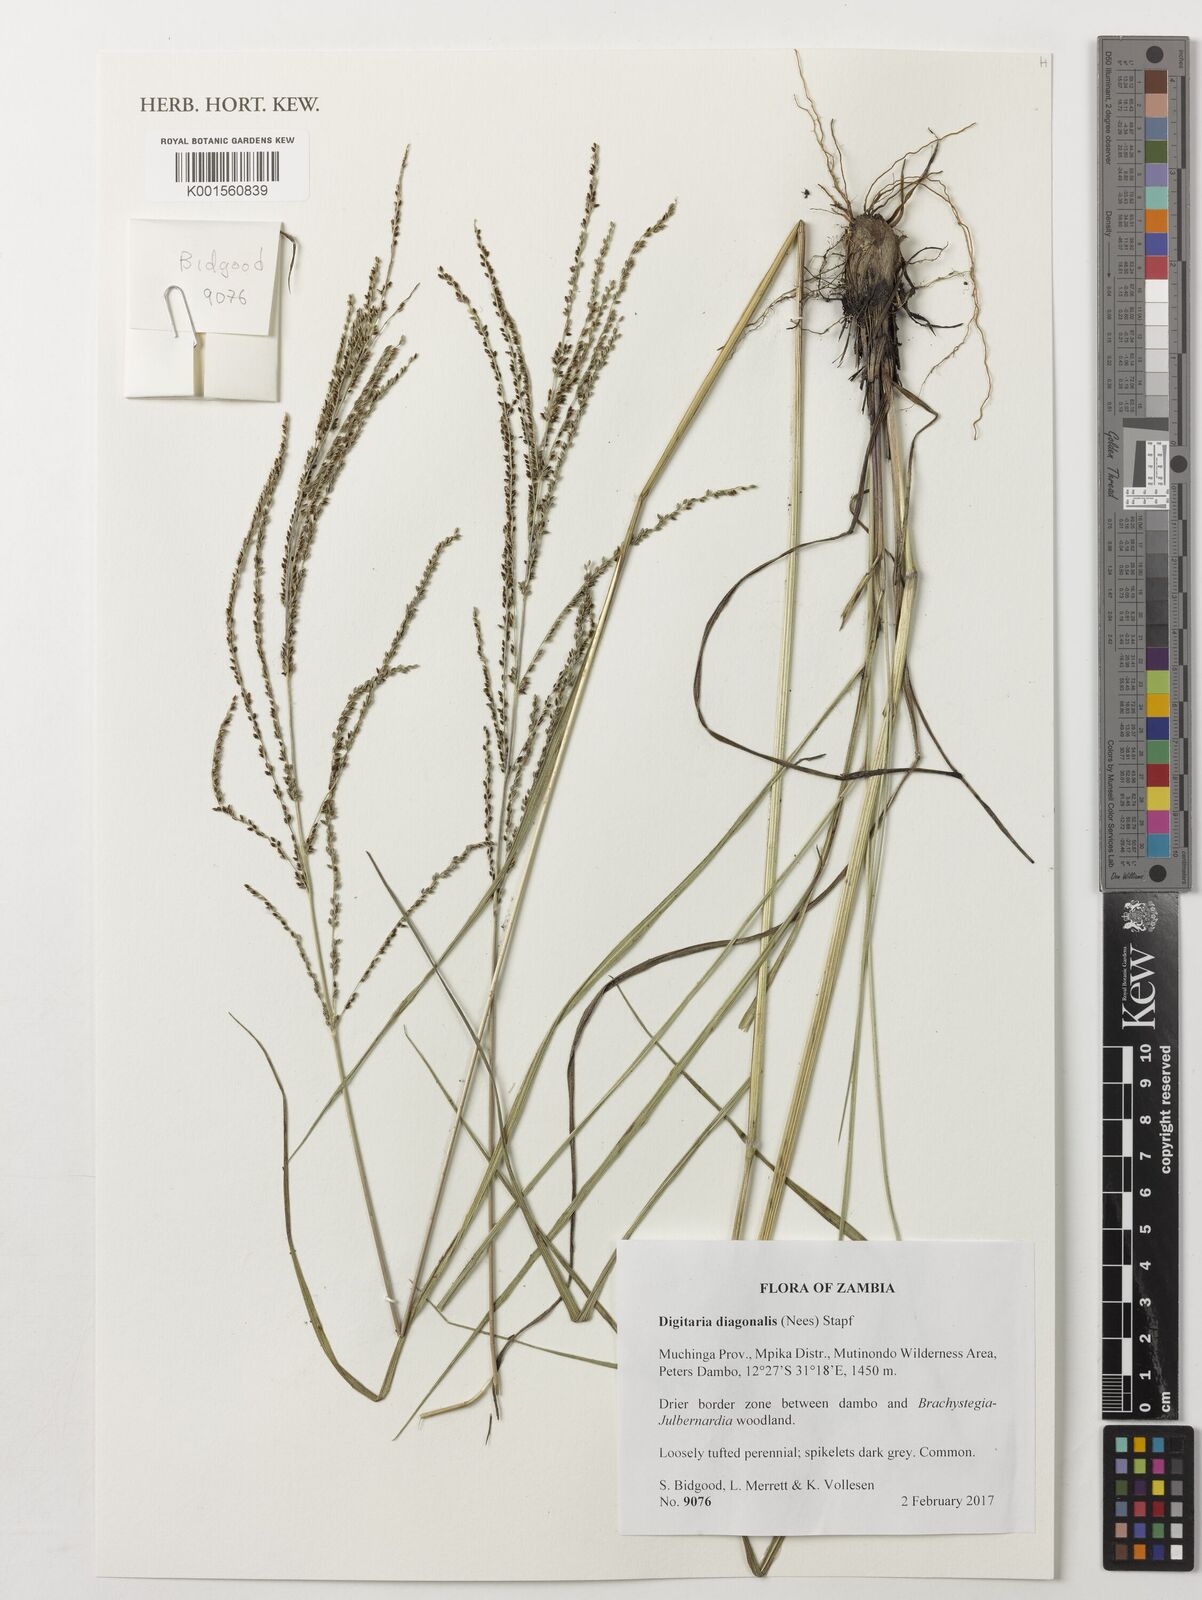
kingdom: Plantae
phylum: Tracheophyta
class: Liliopsida
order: Poales
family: Poaceae
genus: Digitaria
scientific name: Digitaria diagonalis
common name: Brown-seed finger grass
